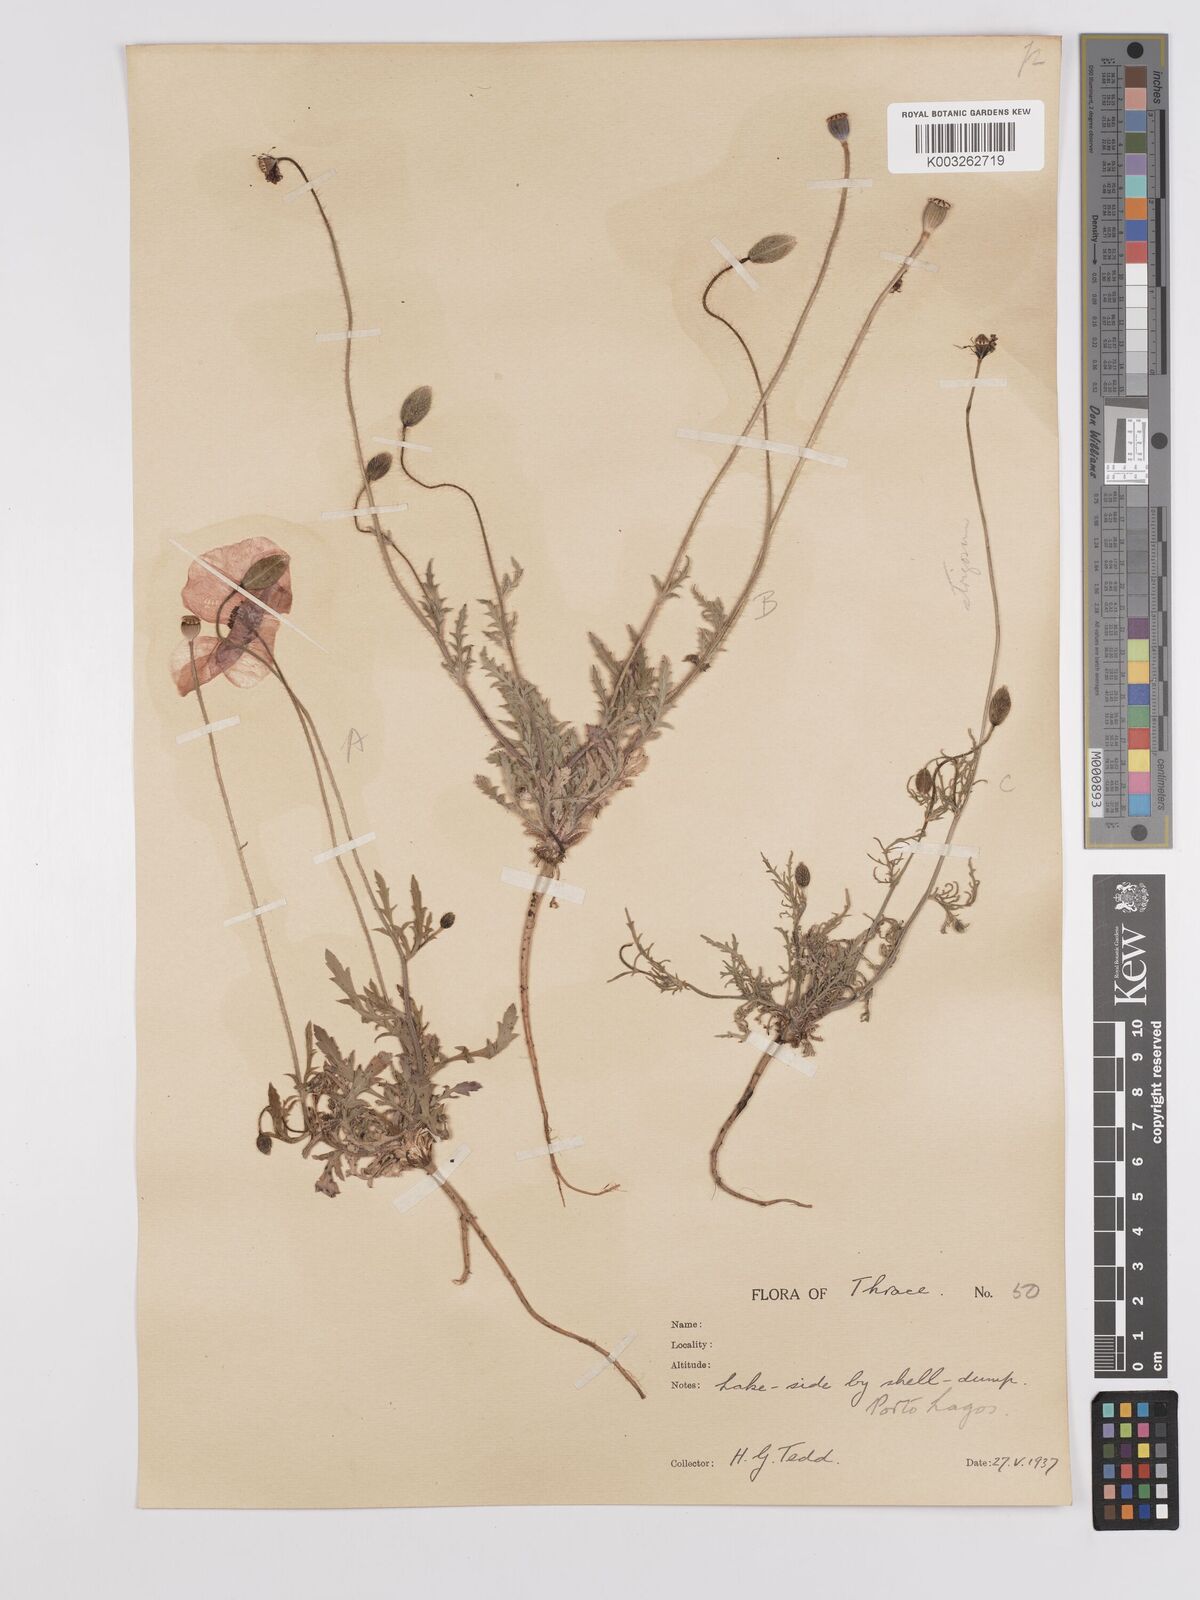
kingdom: Plantae
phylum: Tracheophyta
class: Magnoliopsida
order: Ranunculales
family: Papaveraceae
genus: Papaver
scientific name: Papaver
